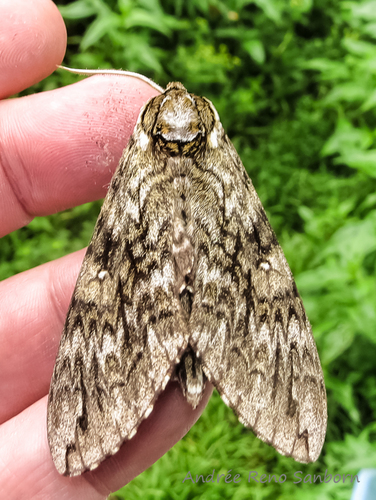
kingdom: Animalia
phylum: Arthropoda
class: Insecta
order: Lepidoptera
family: Sphingidae
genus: Ceratomia
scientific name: Ceratomia undulosa
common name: Waved sphinx
